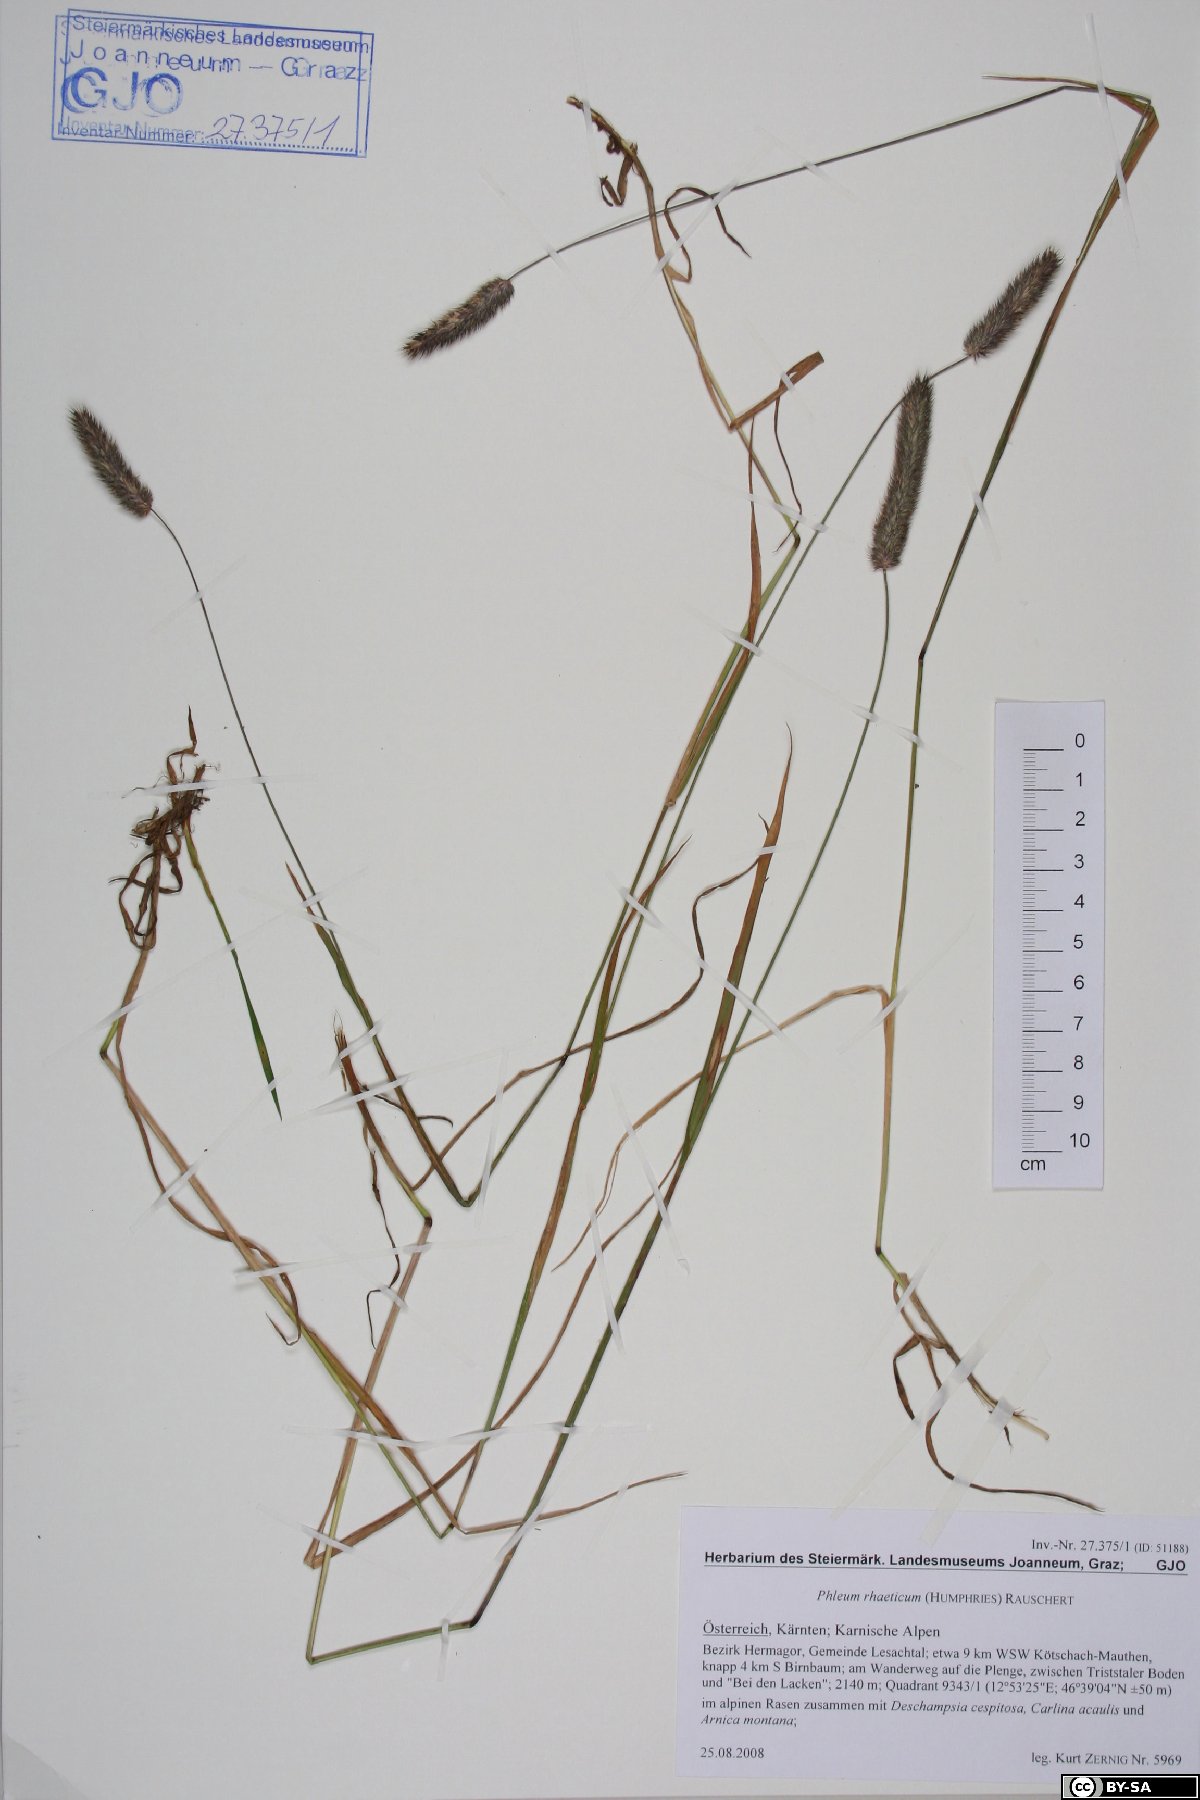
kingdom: Plantae
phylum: Tracheophyta
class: Liliopsida
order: Poales
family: Poaceae
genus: Phleum
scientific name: Phleum alpinum
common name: Alpine cat's-tail
